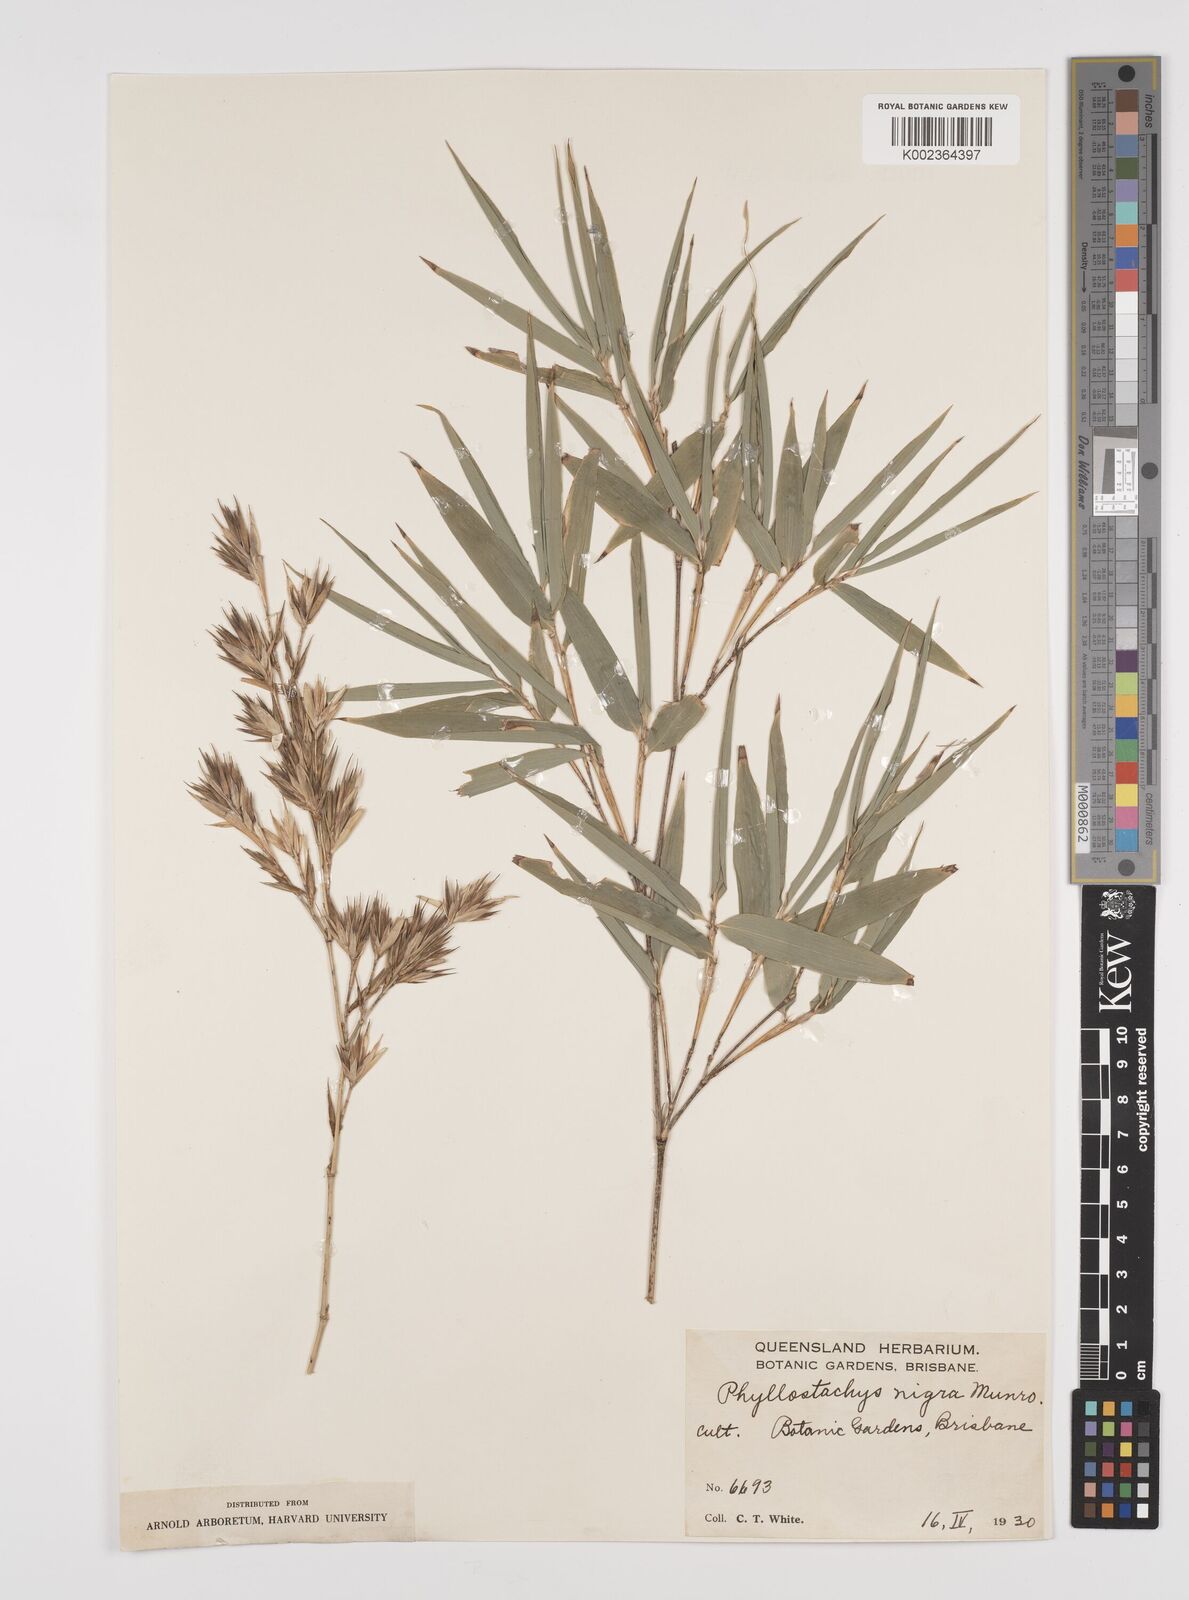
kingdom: Plantae
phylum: Tracheophyta
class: Liliopsida
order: Poales
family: Poaceae
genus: Phyllostachys
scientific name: Phyllostachys nigra
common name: Black bamboo
